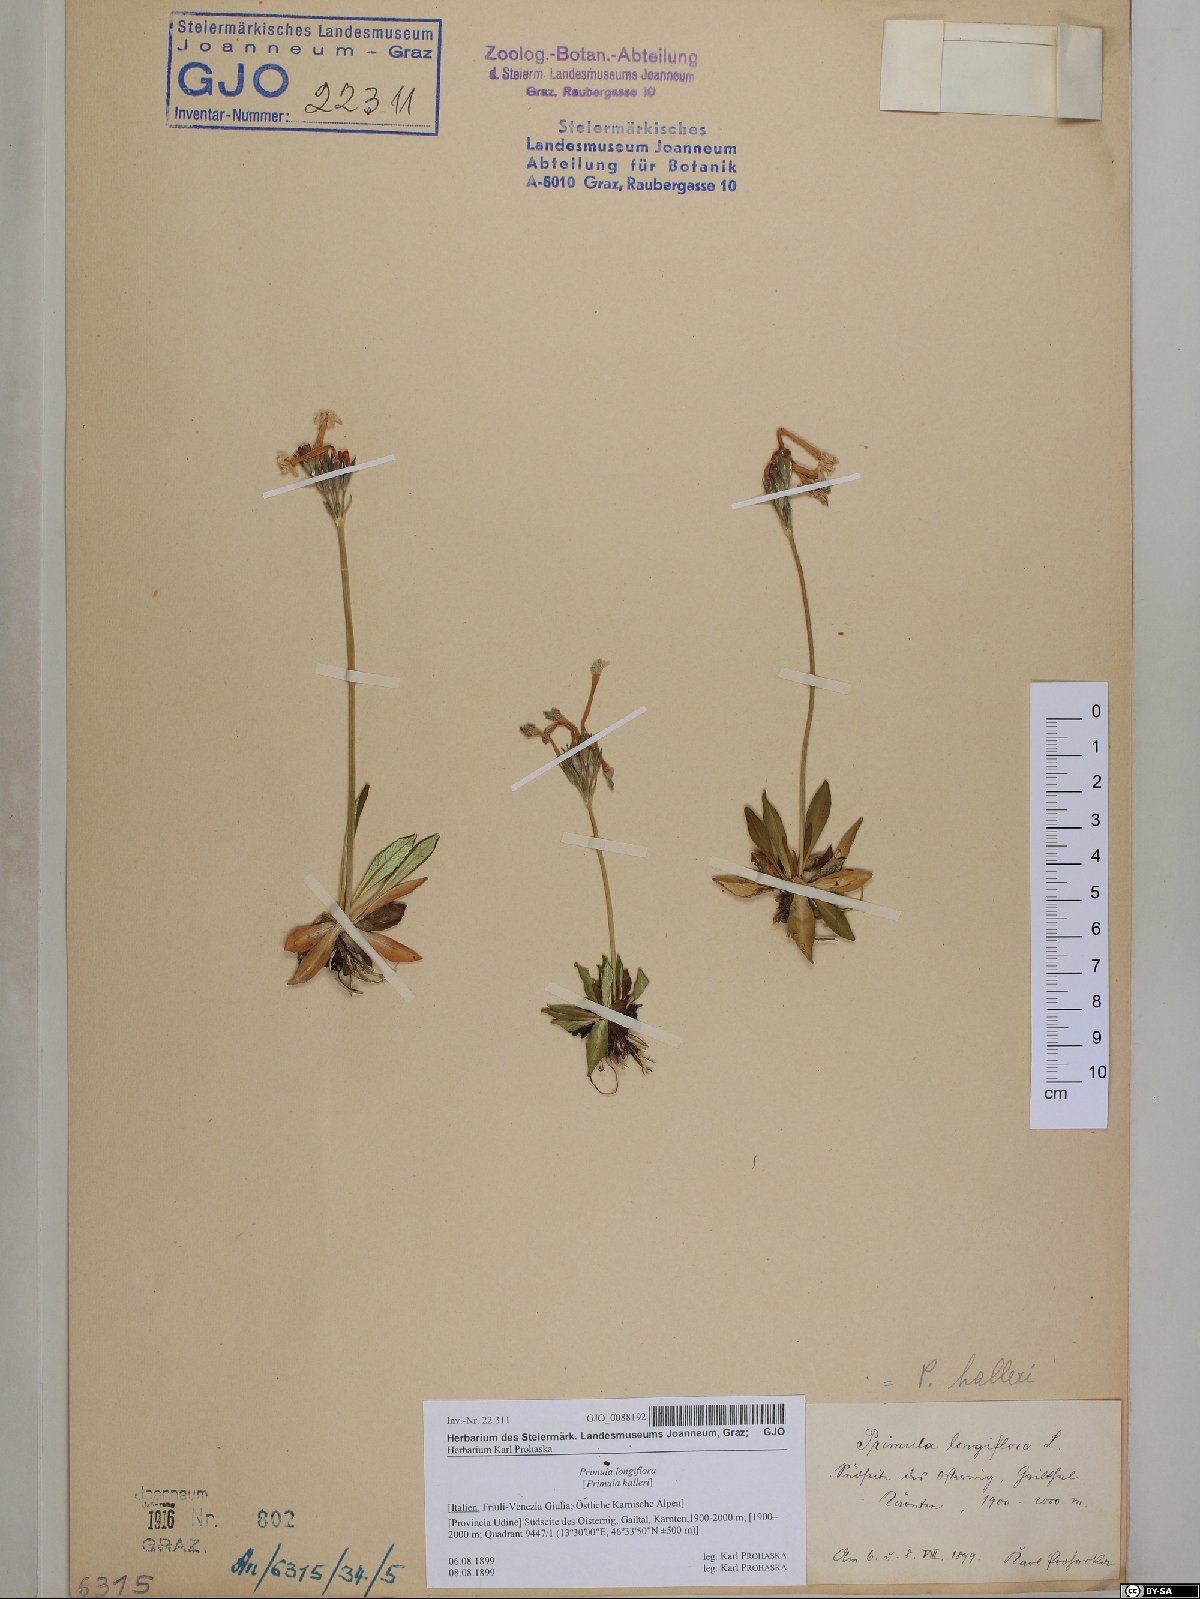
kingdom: Plantae
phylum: Tracheophyta
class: Magnoliopsida
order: Ericales
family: Primulaceae
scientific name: Primulaceae
